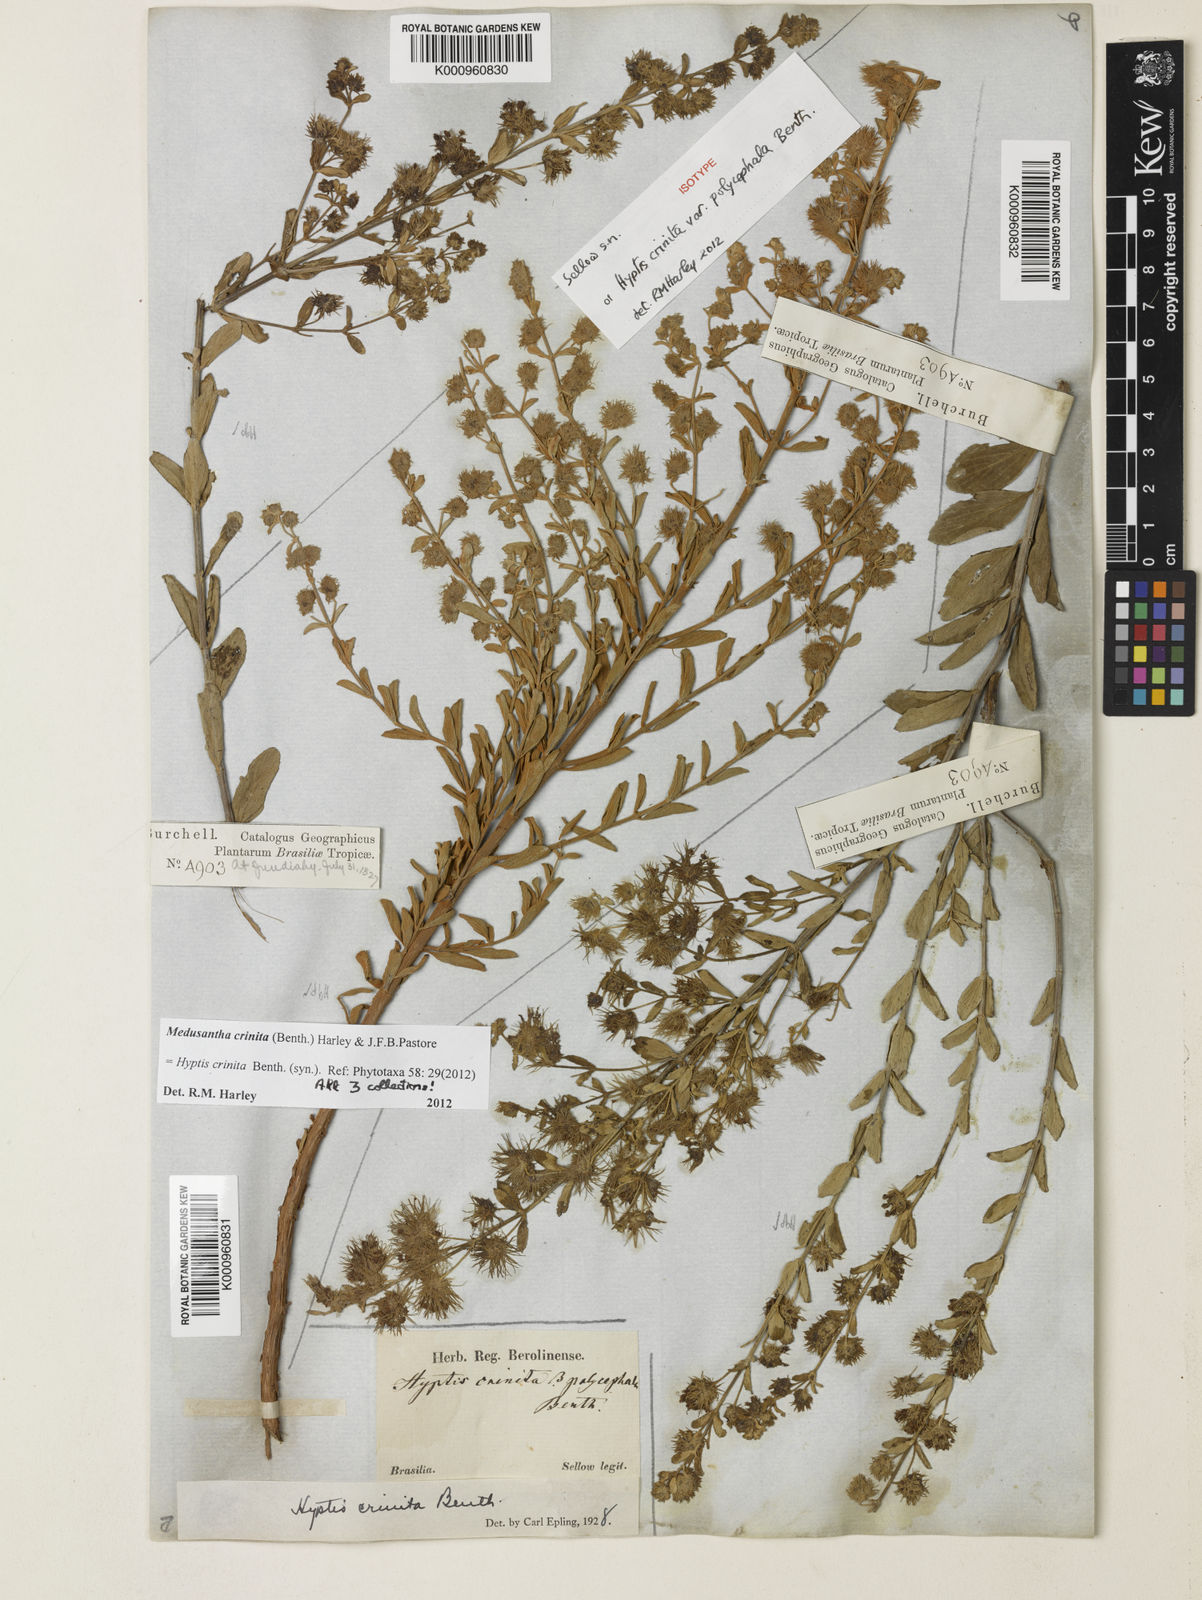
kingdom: Plantae
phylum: Tracheophyta
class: Magnoliopsida
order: Lamiales
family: Lamiaceae
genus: Medusantha
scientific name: Medusantha crinita
